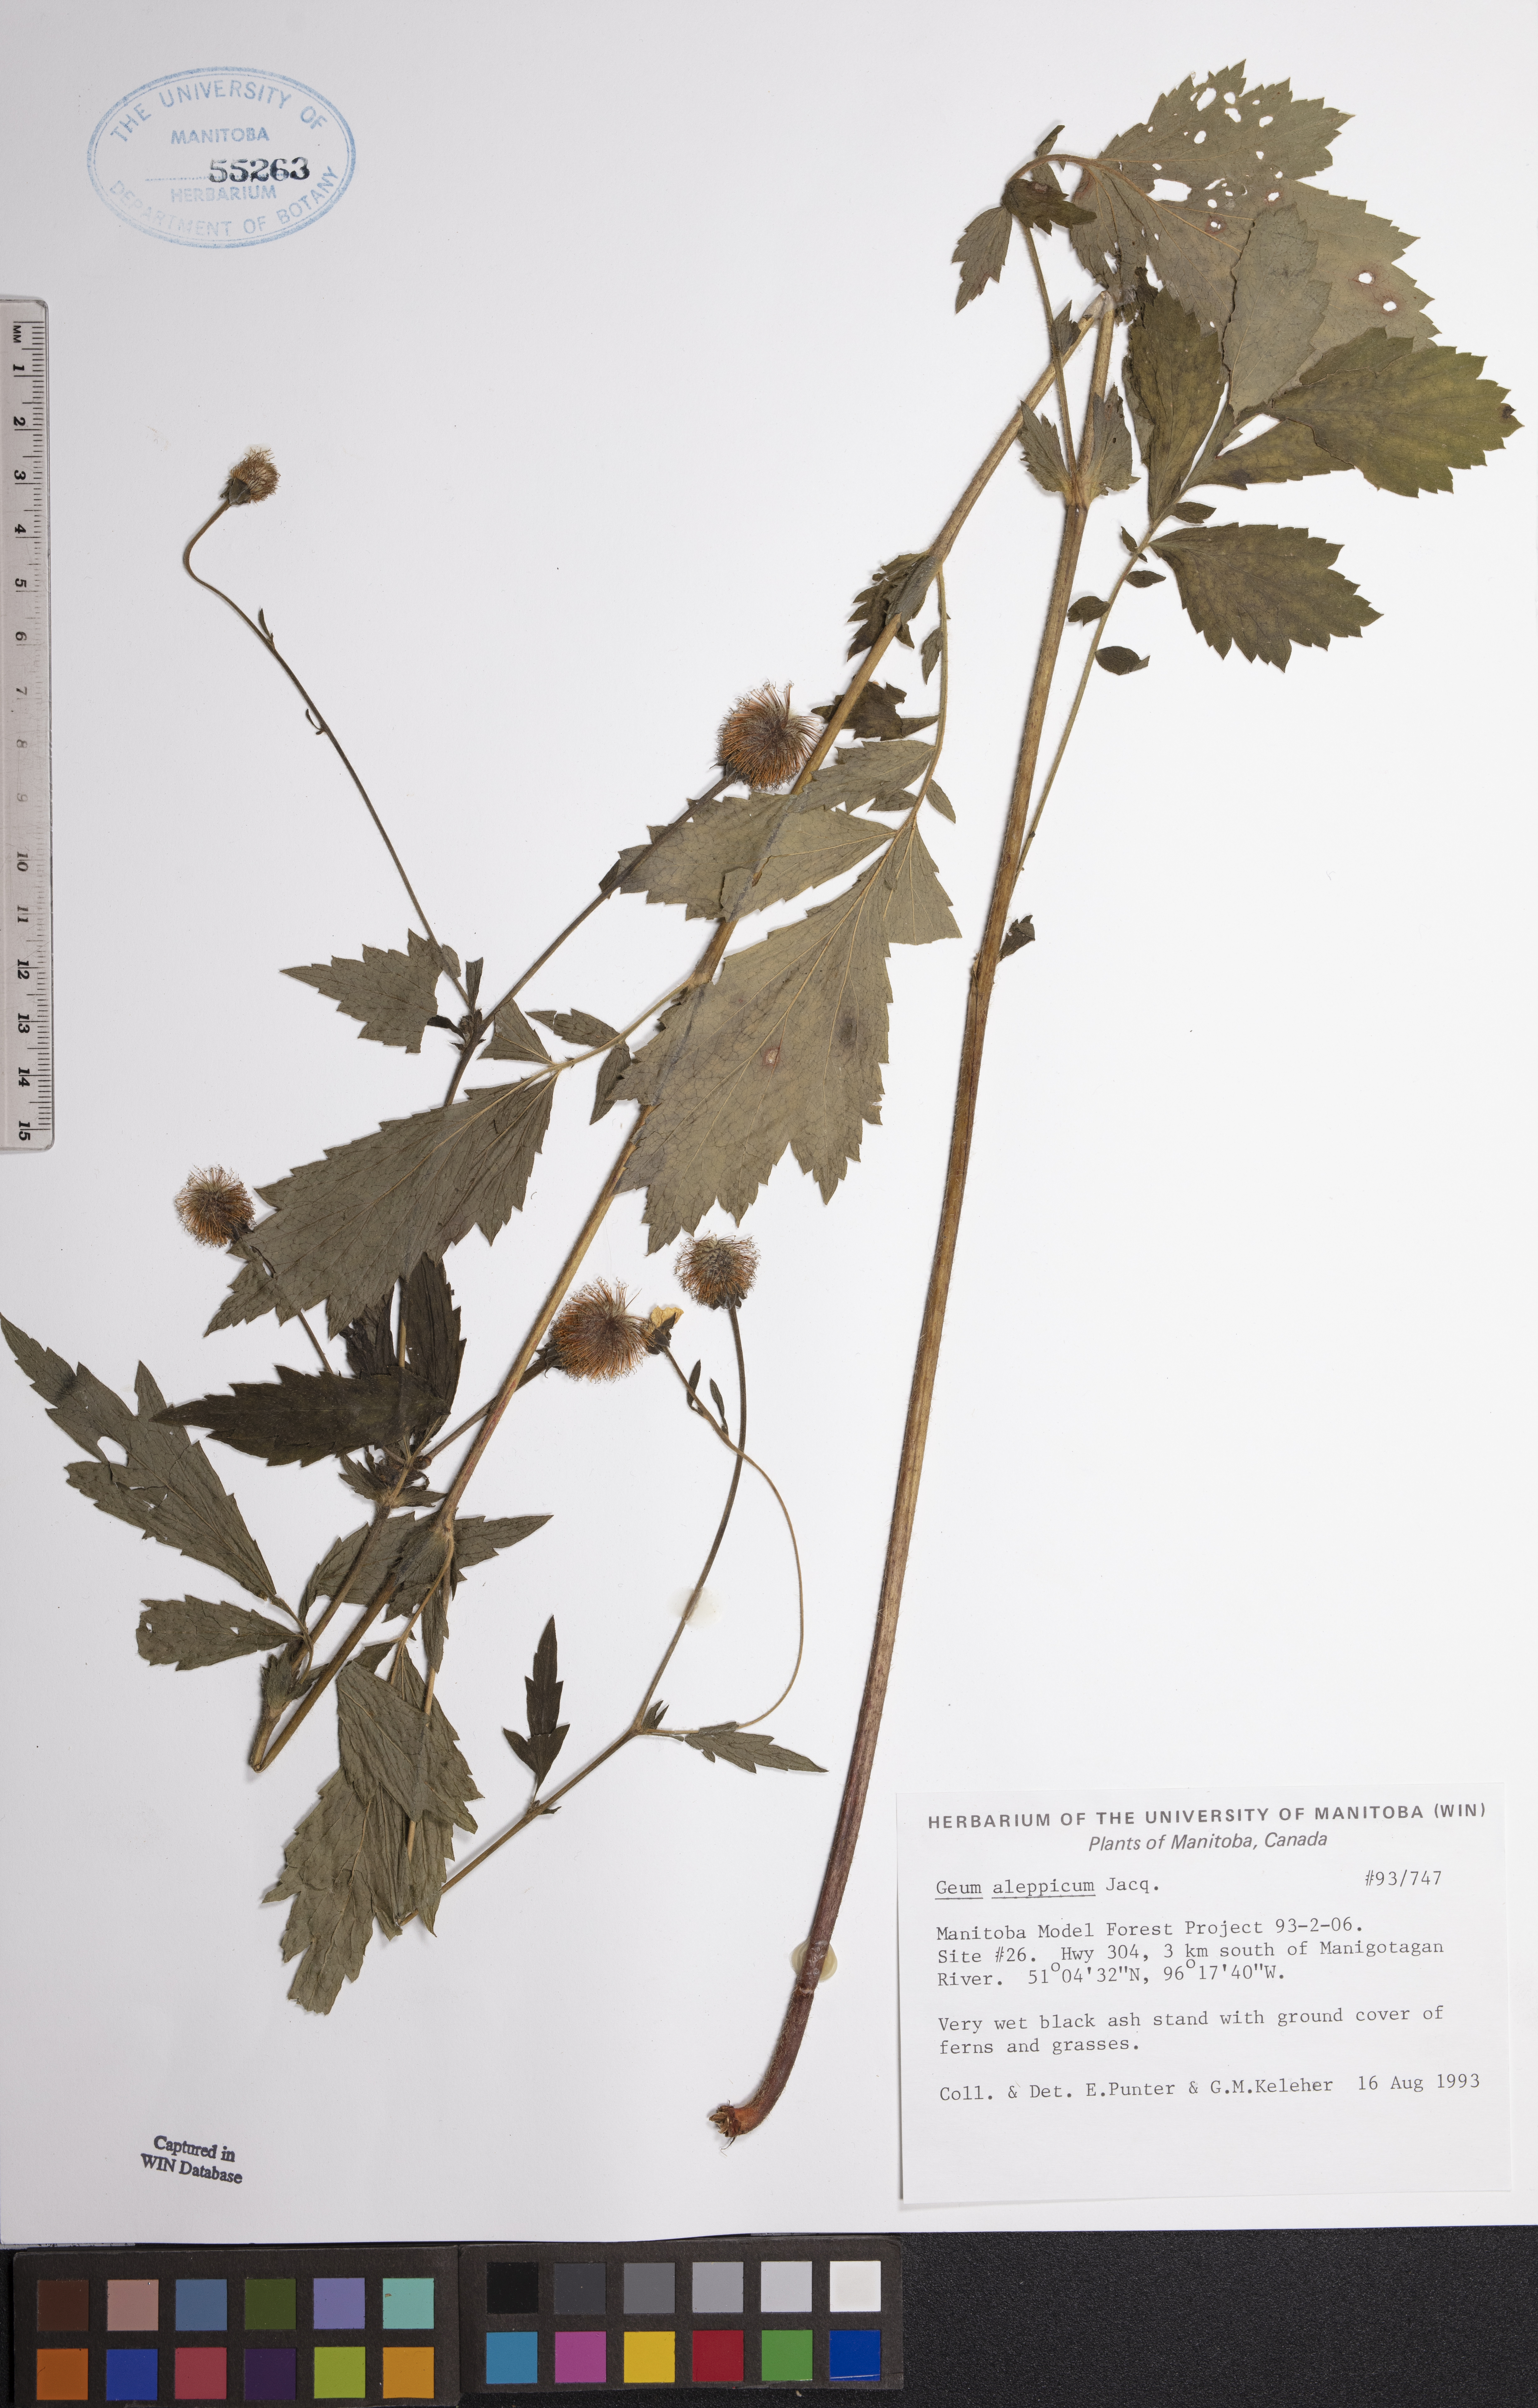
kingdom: Plantae
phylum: Tracheophyta
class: Magnoliopsida
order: Rosales
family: Rosaceae
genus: Geum
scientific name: Geum aleppicum
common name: Yellow avens
